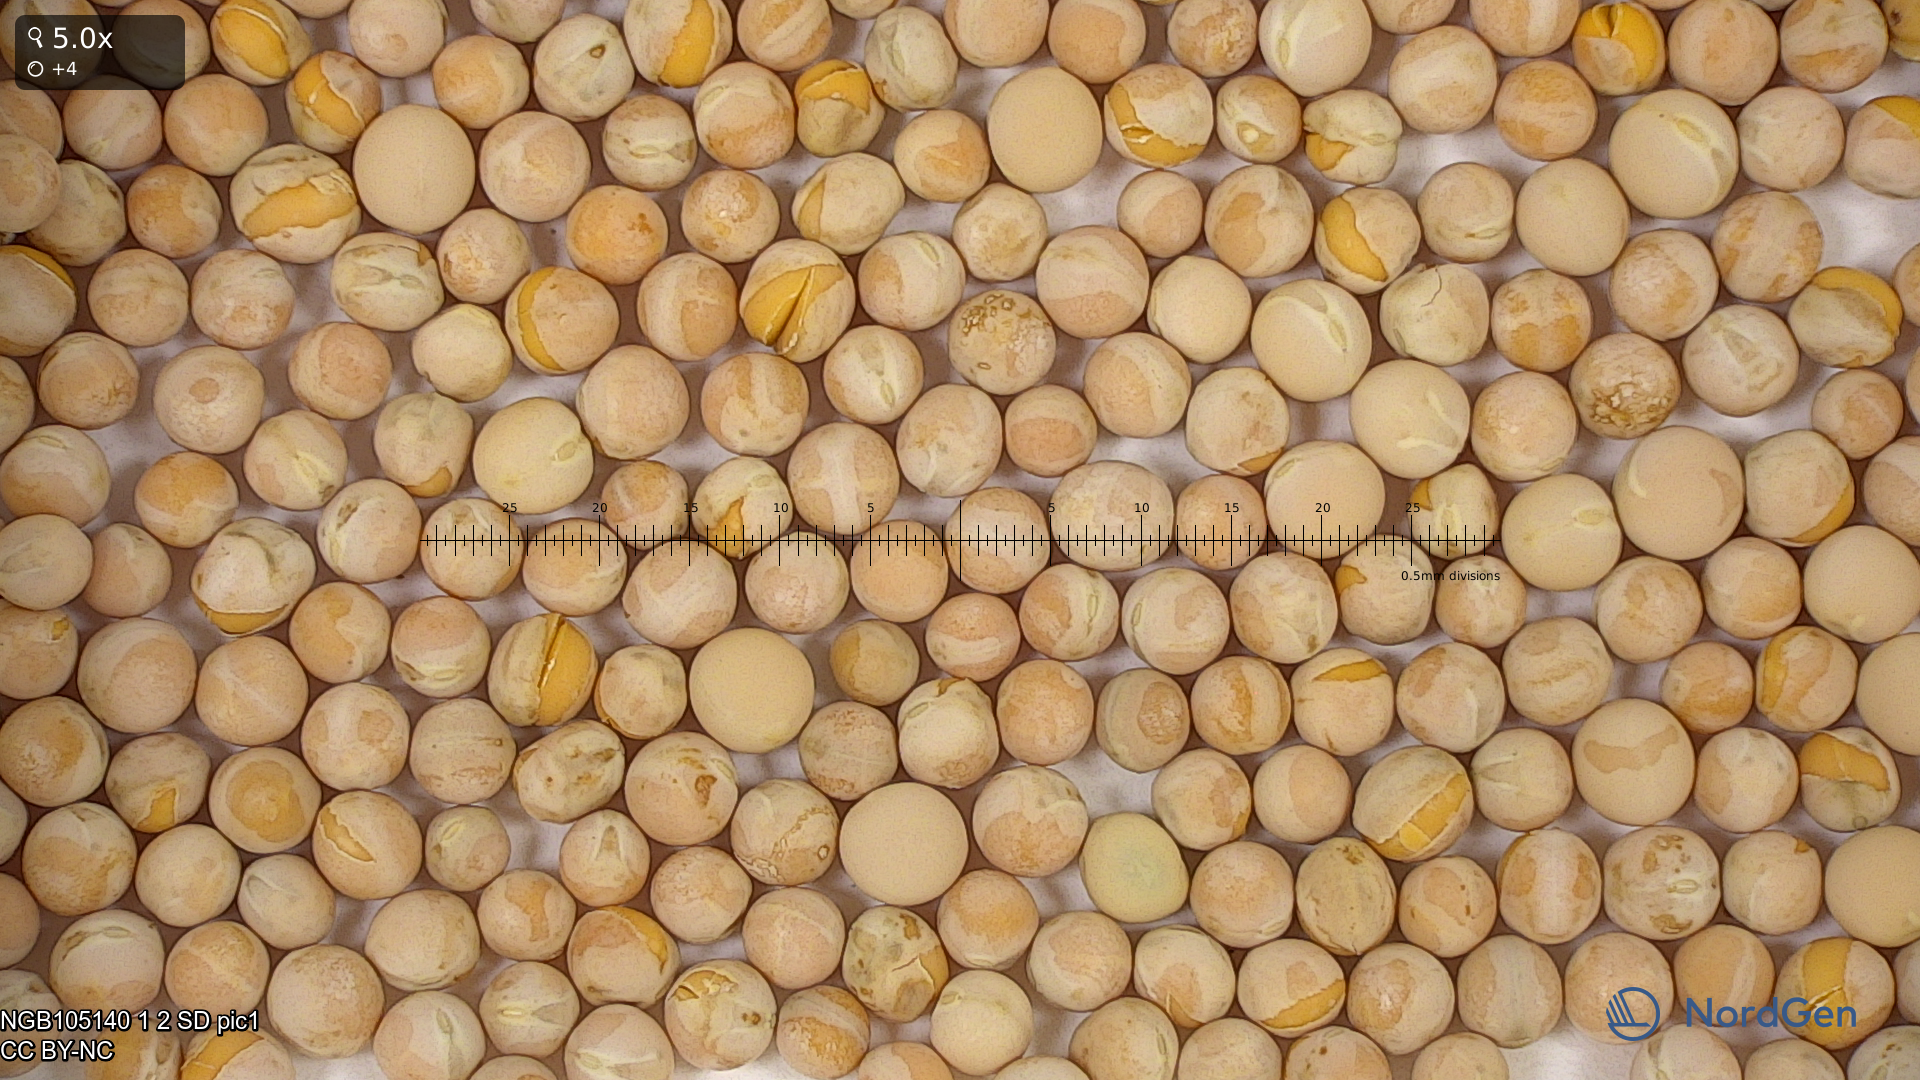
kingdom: Plantae
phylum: Tracheophyta
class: Magnoliopsida
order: Fabales
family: Fabaceae
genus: Lathyrus
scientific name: Lathyrus oleraceus
